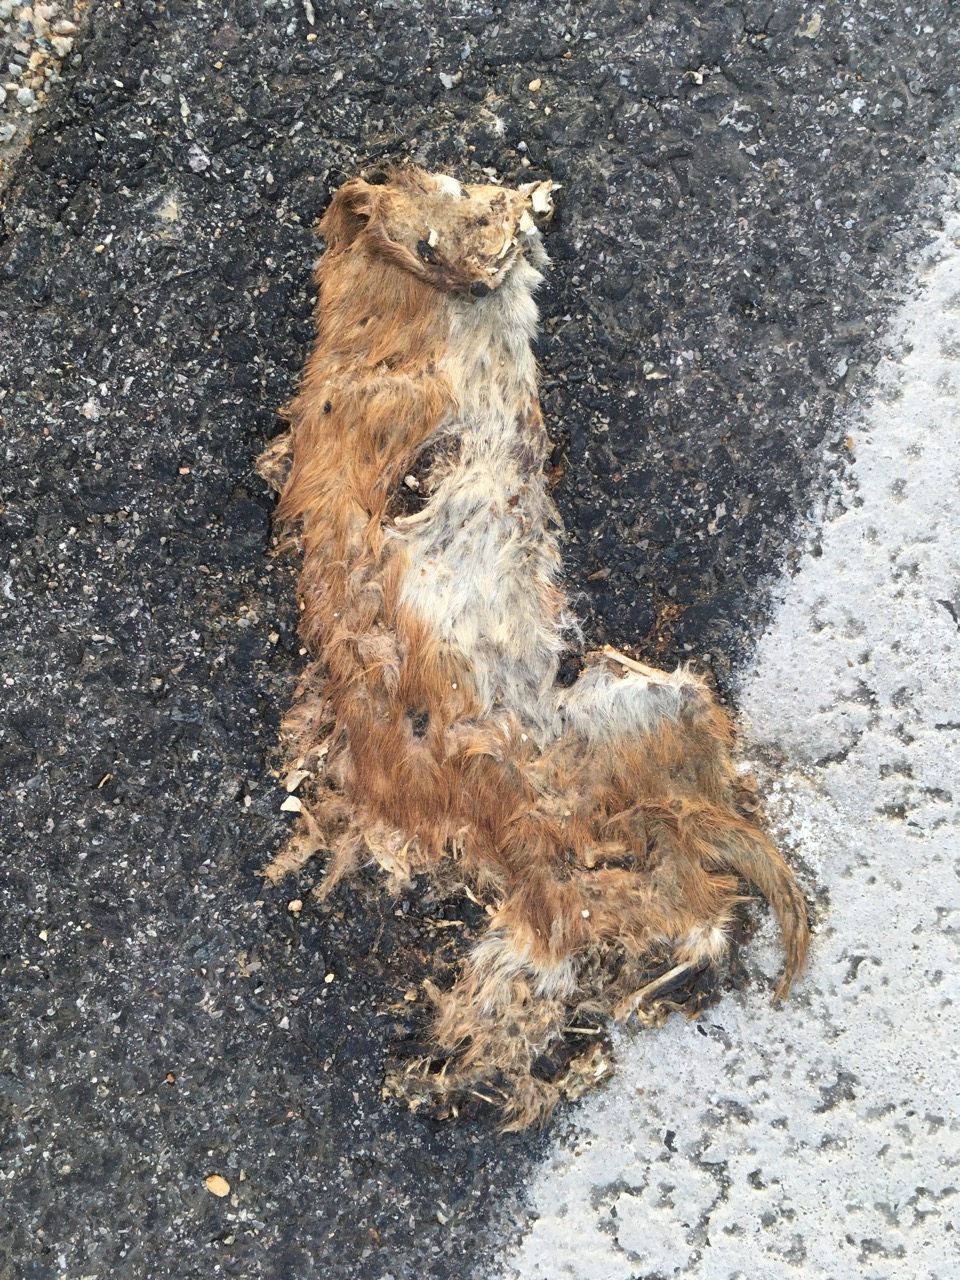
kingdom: Animalia
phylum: Chordata
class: Mammalia
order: Carnivora
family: Mustelidae
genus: Mustela
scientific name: Mustela nivalis
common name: Least weasel
